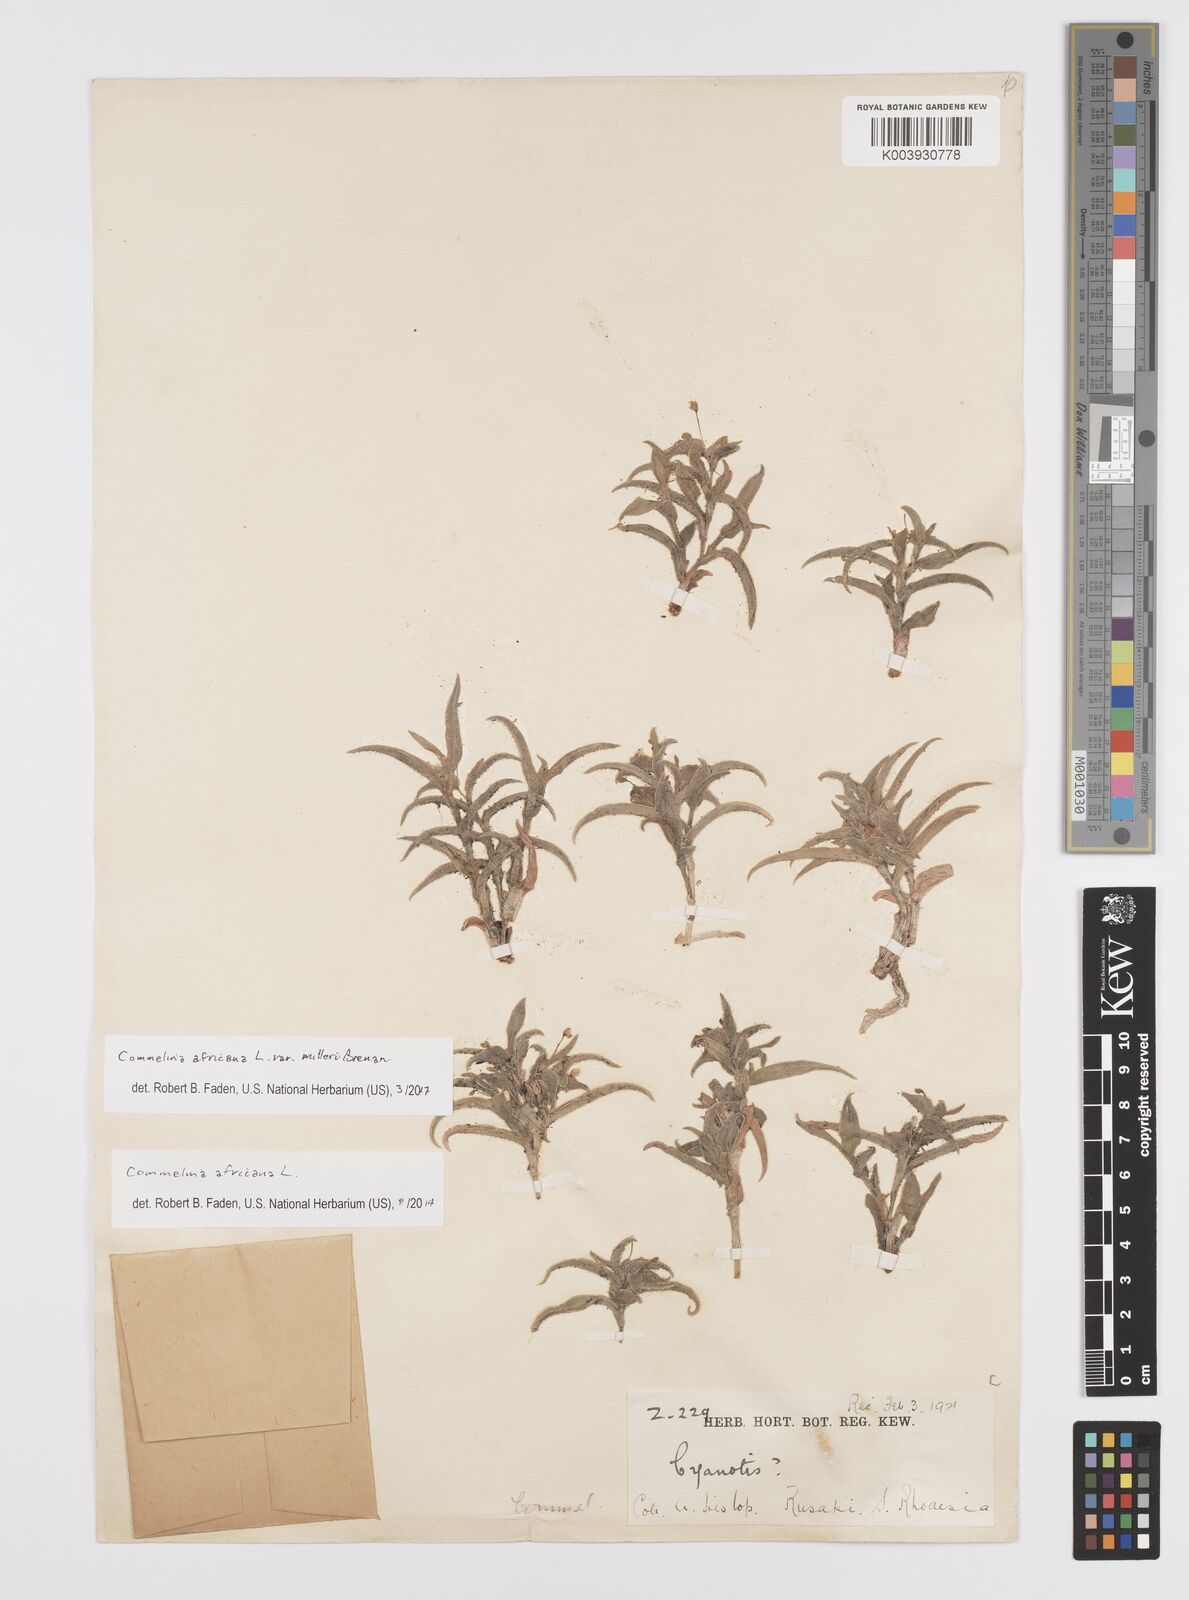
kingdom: Plantae
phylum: Tracheophyta
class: Liliopsida
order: Commelinales
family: Commelinaceae
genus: Commelina
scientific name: Commelina africana
